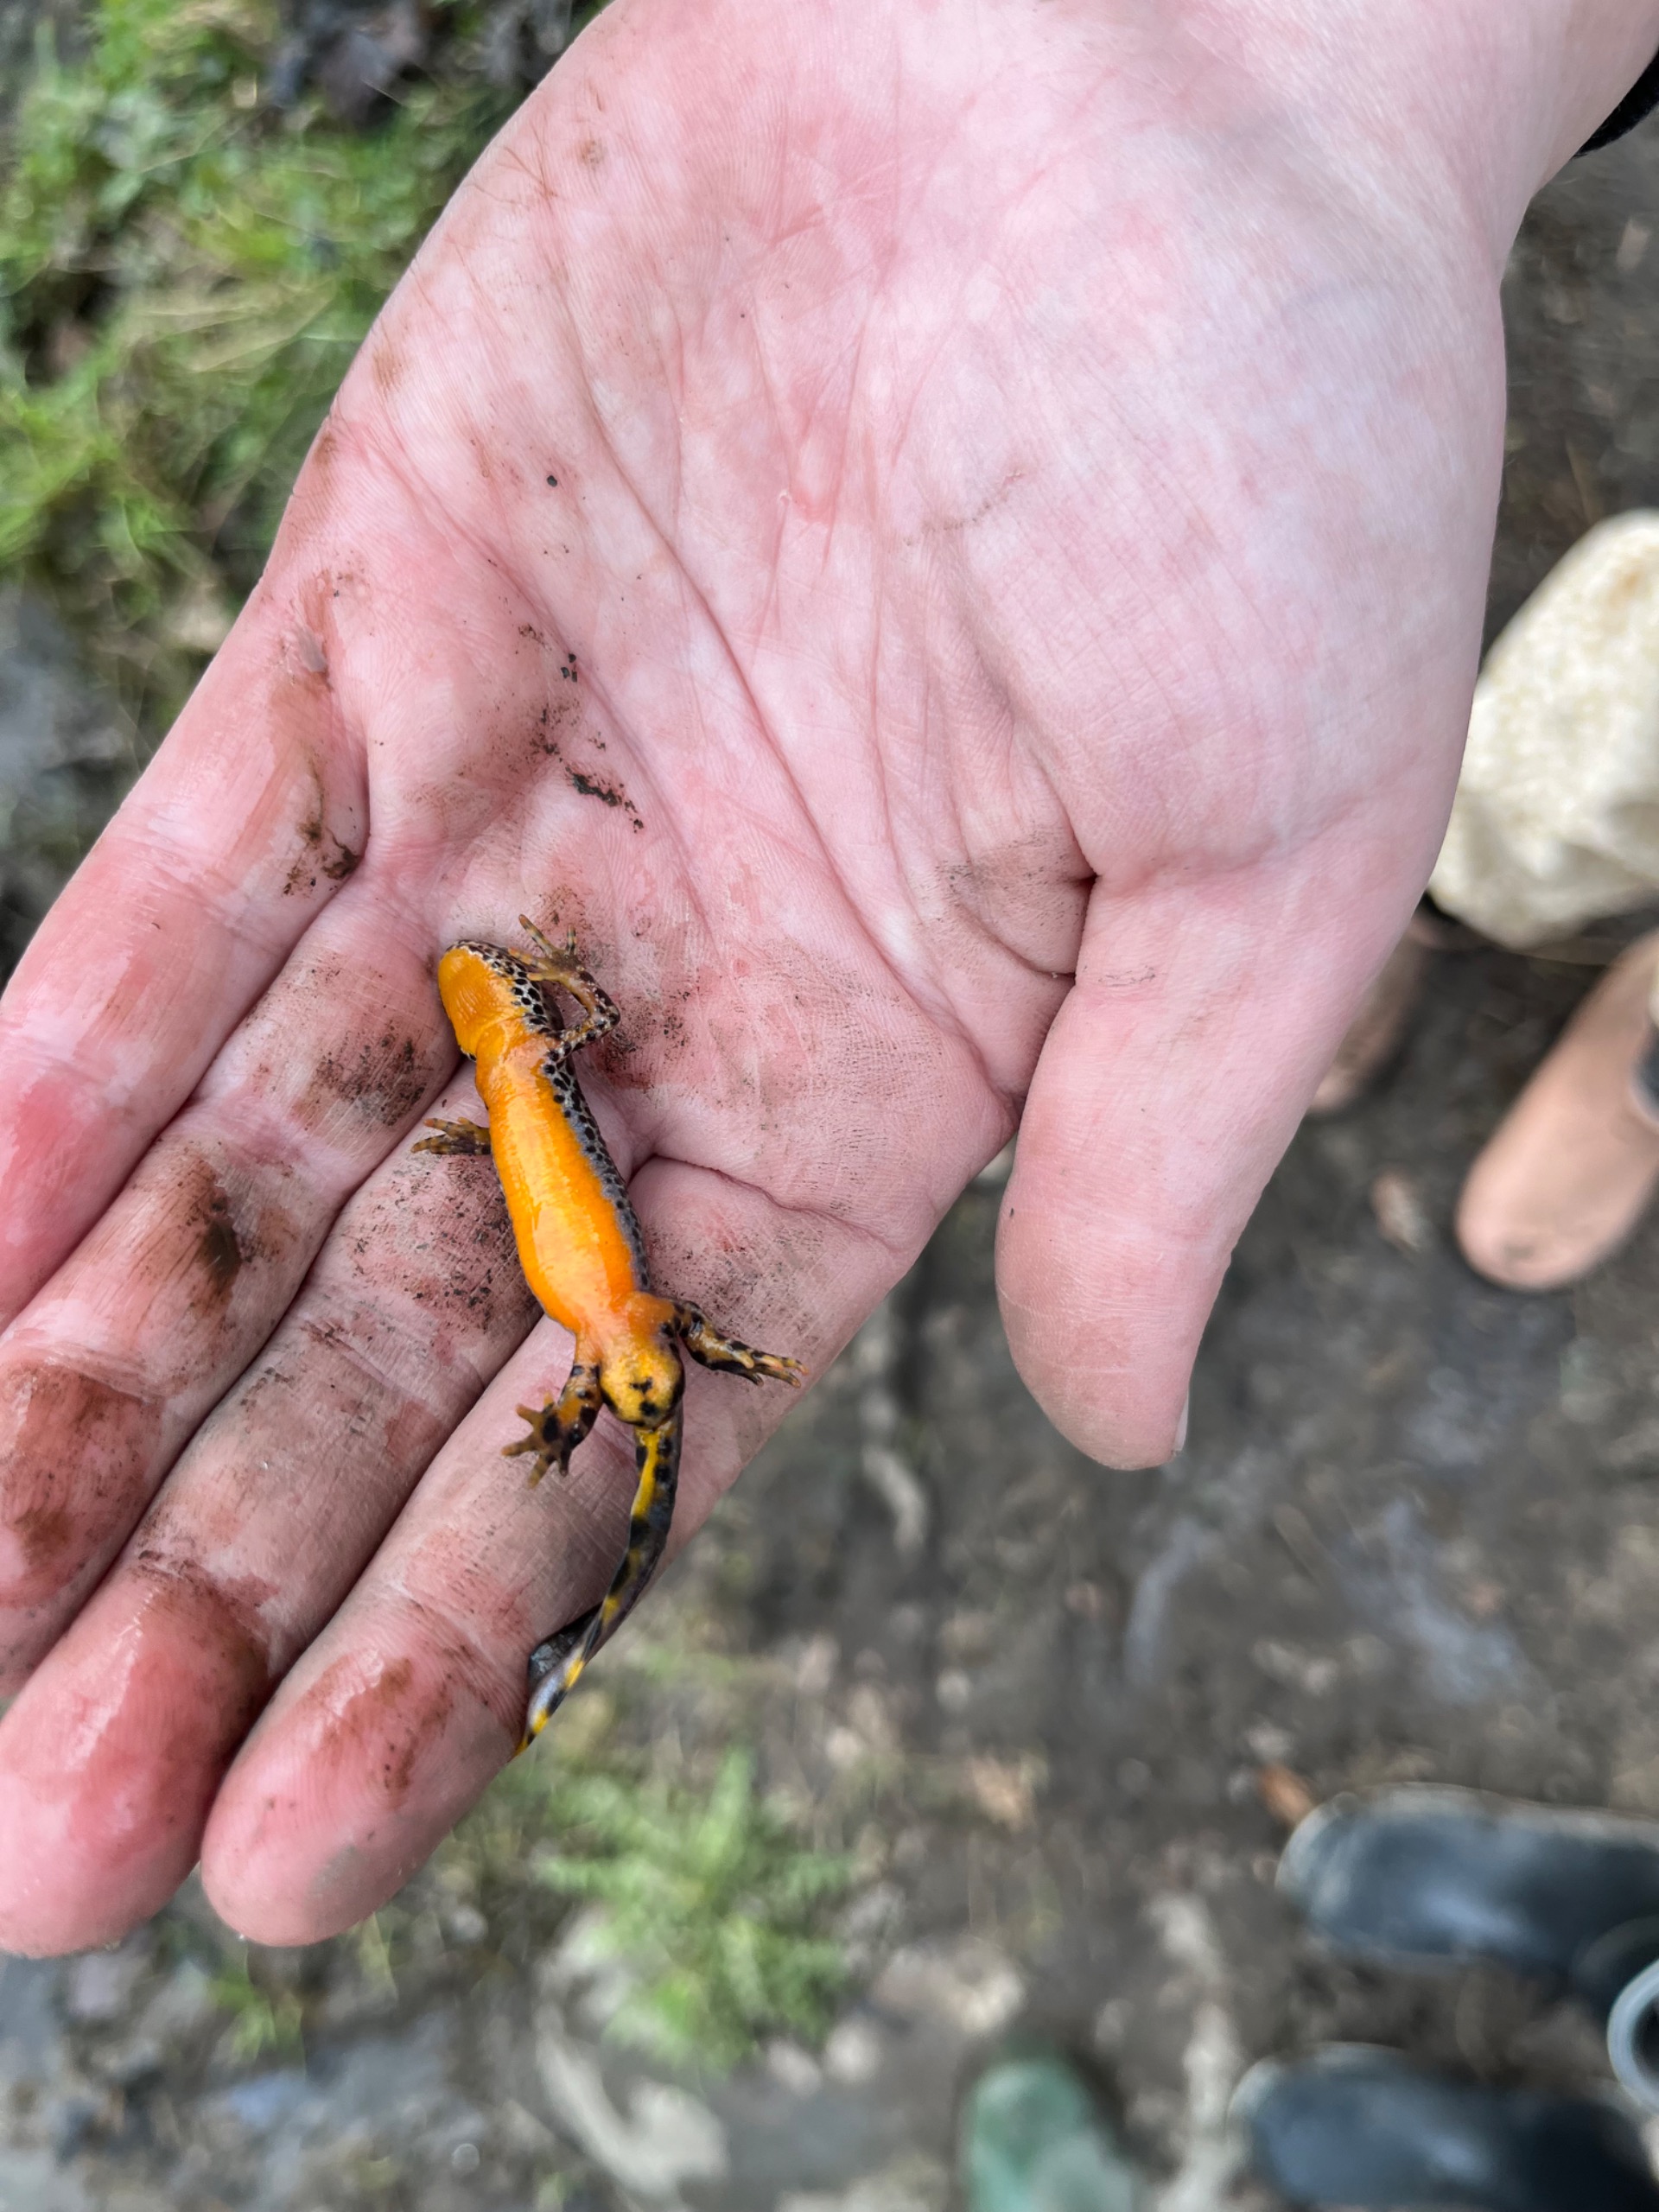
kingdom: Animalia
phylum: Chordata
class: Amphibia
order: Caudata
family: Salamandridae
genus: Ichthyosaura
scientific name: Ichthyosaura alpestris
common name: Bjergsalamander
